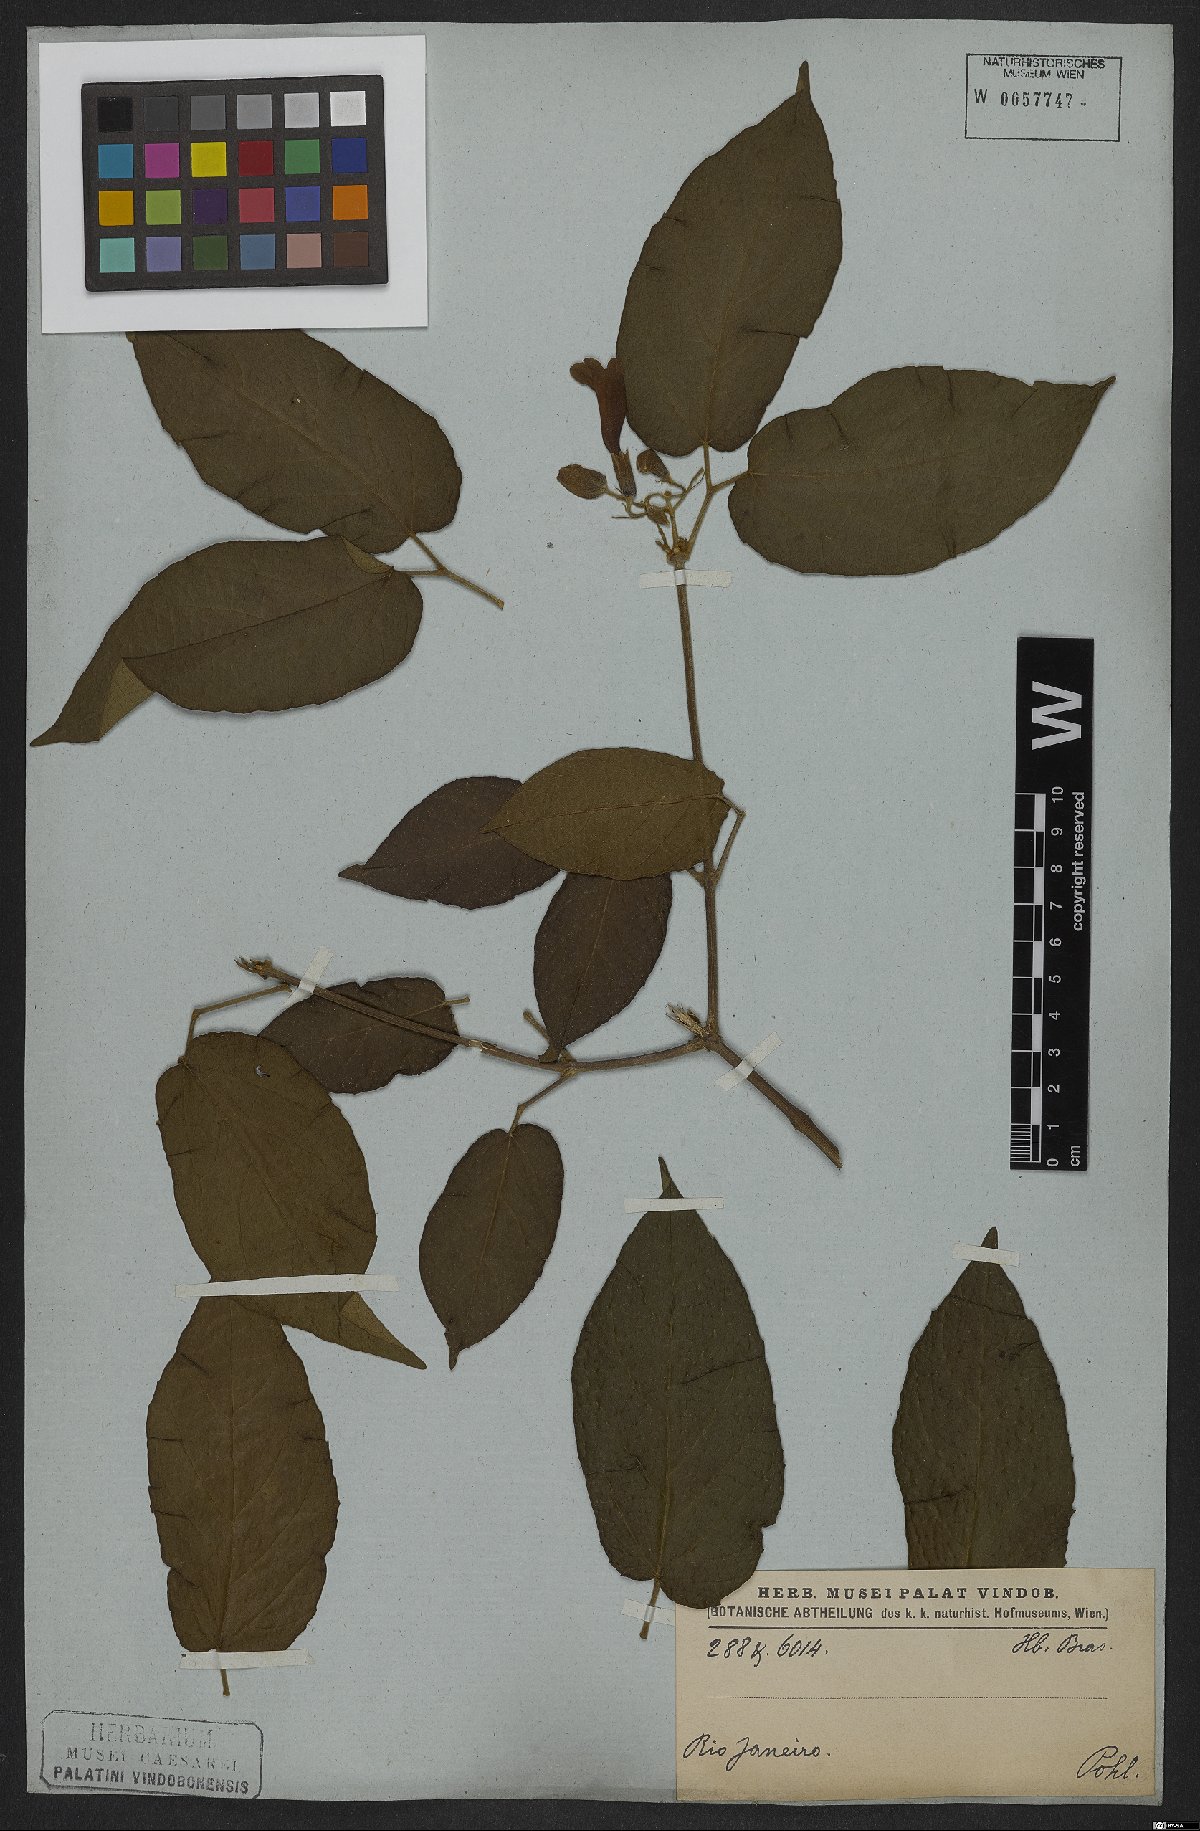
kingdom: Plantae
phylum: Tracheophyta
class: Magnoliopsida
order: Lamiales
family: Bignoniaceae
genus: Stizophyllum
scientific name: Stizophyllum perforatum
